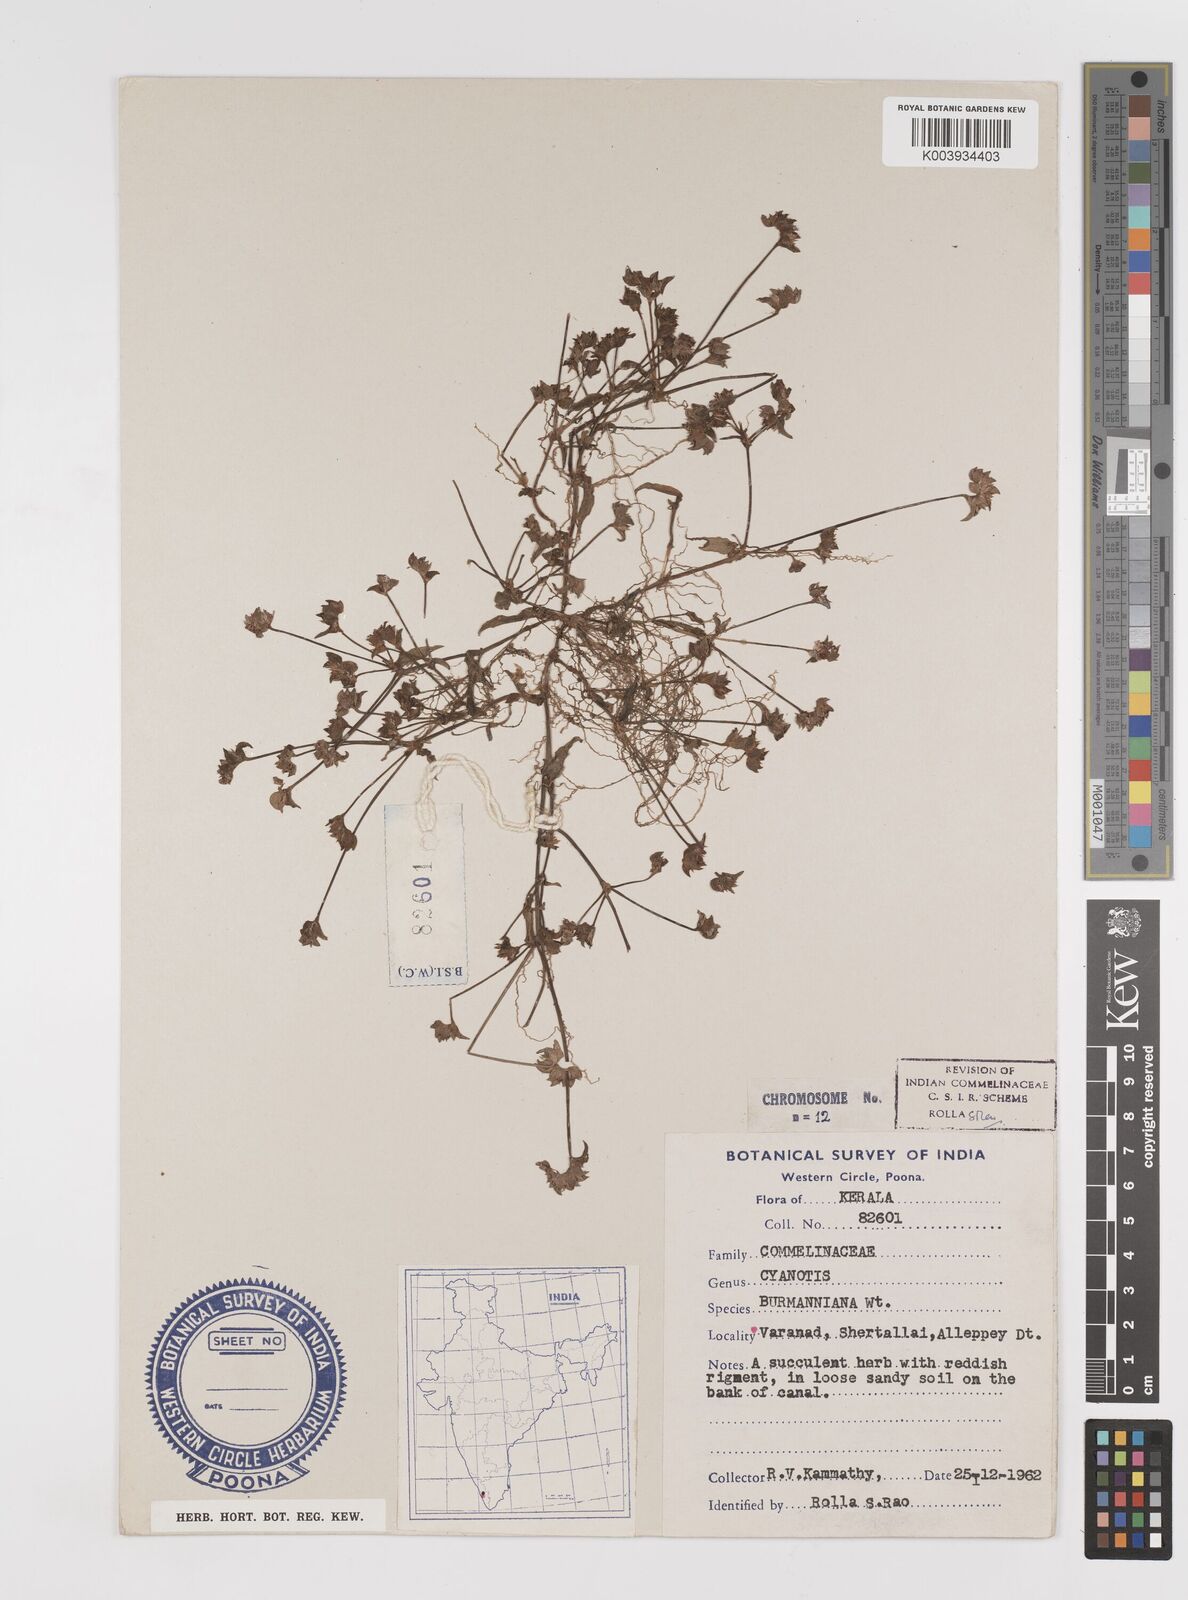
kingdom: Plantae
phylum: Tracheophyta
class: Liliopsida
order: Commelinales
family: Commelinaceae
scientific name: Commelinaceae
